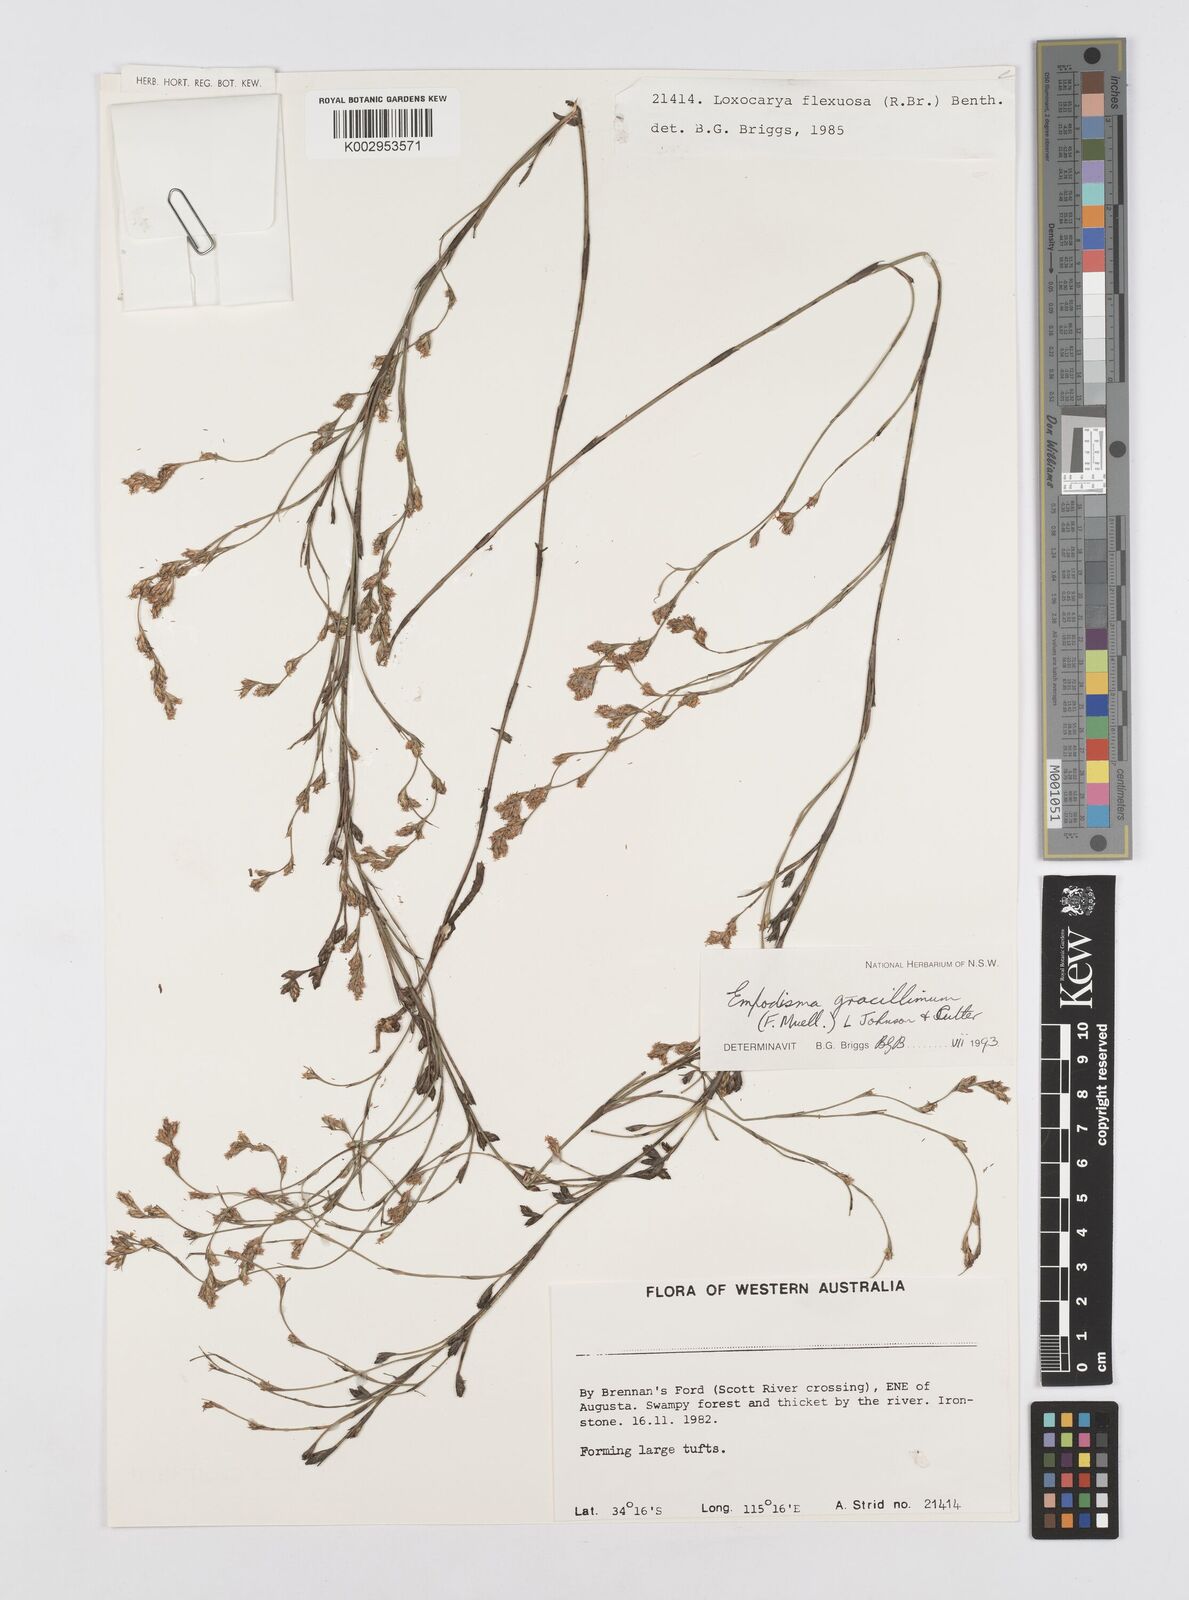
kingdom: Plantae
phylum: Tracheophyta
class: Liliopsida
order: Poales
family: Restionaceae
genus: Empodisma
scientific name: Empodisma gracillimum
